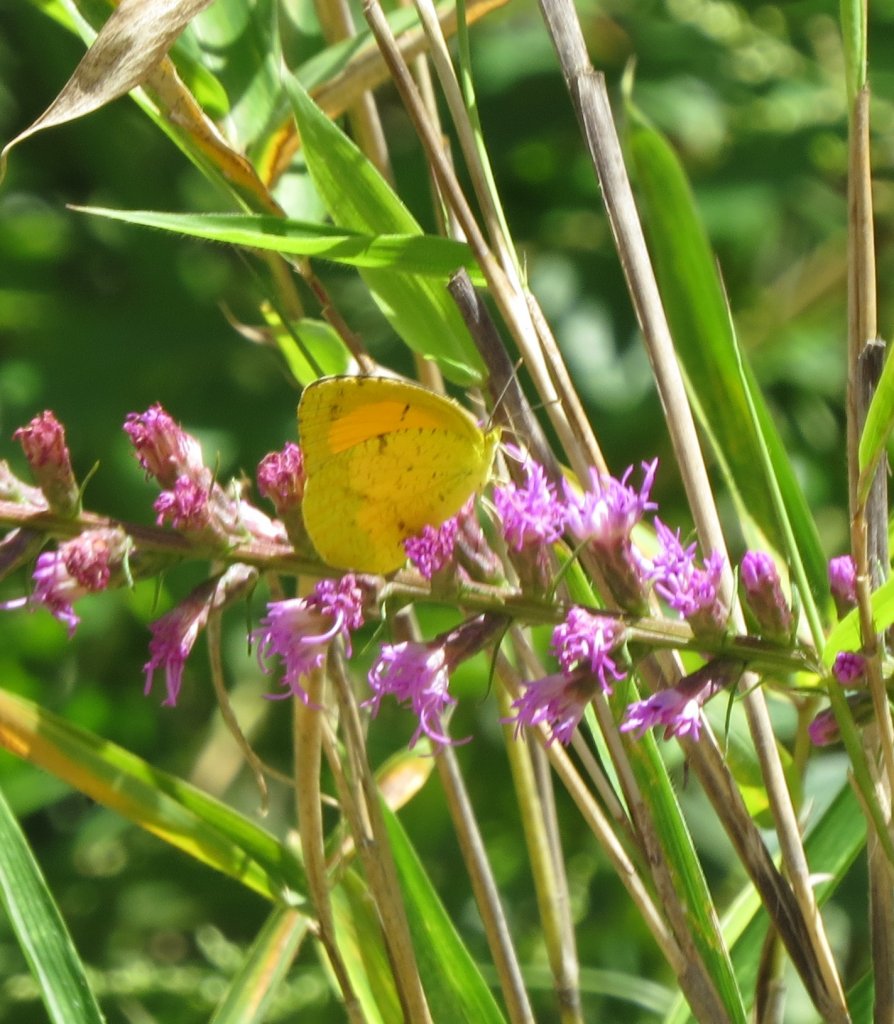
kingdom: Animalia
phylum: Arthropoda
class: Insecta
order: Lepidoptera
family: Pieridae
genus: Abaeis
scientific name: Abaeis nicippe
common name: Sleepy Orange
